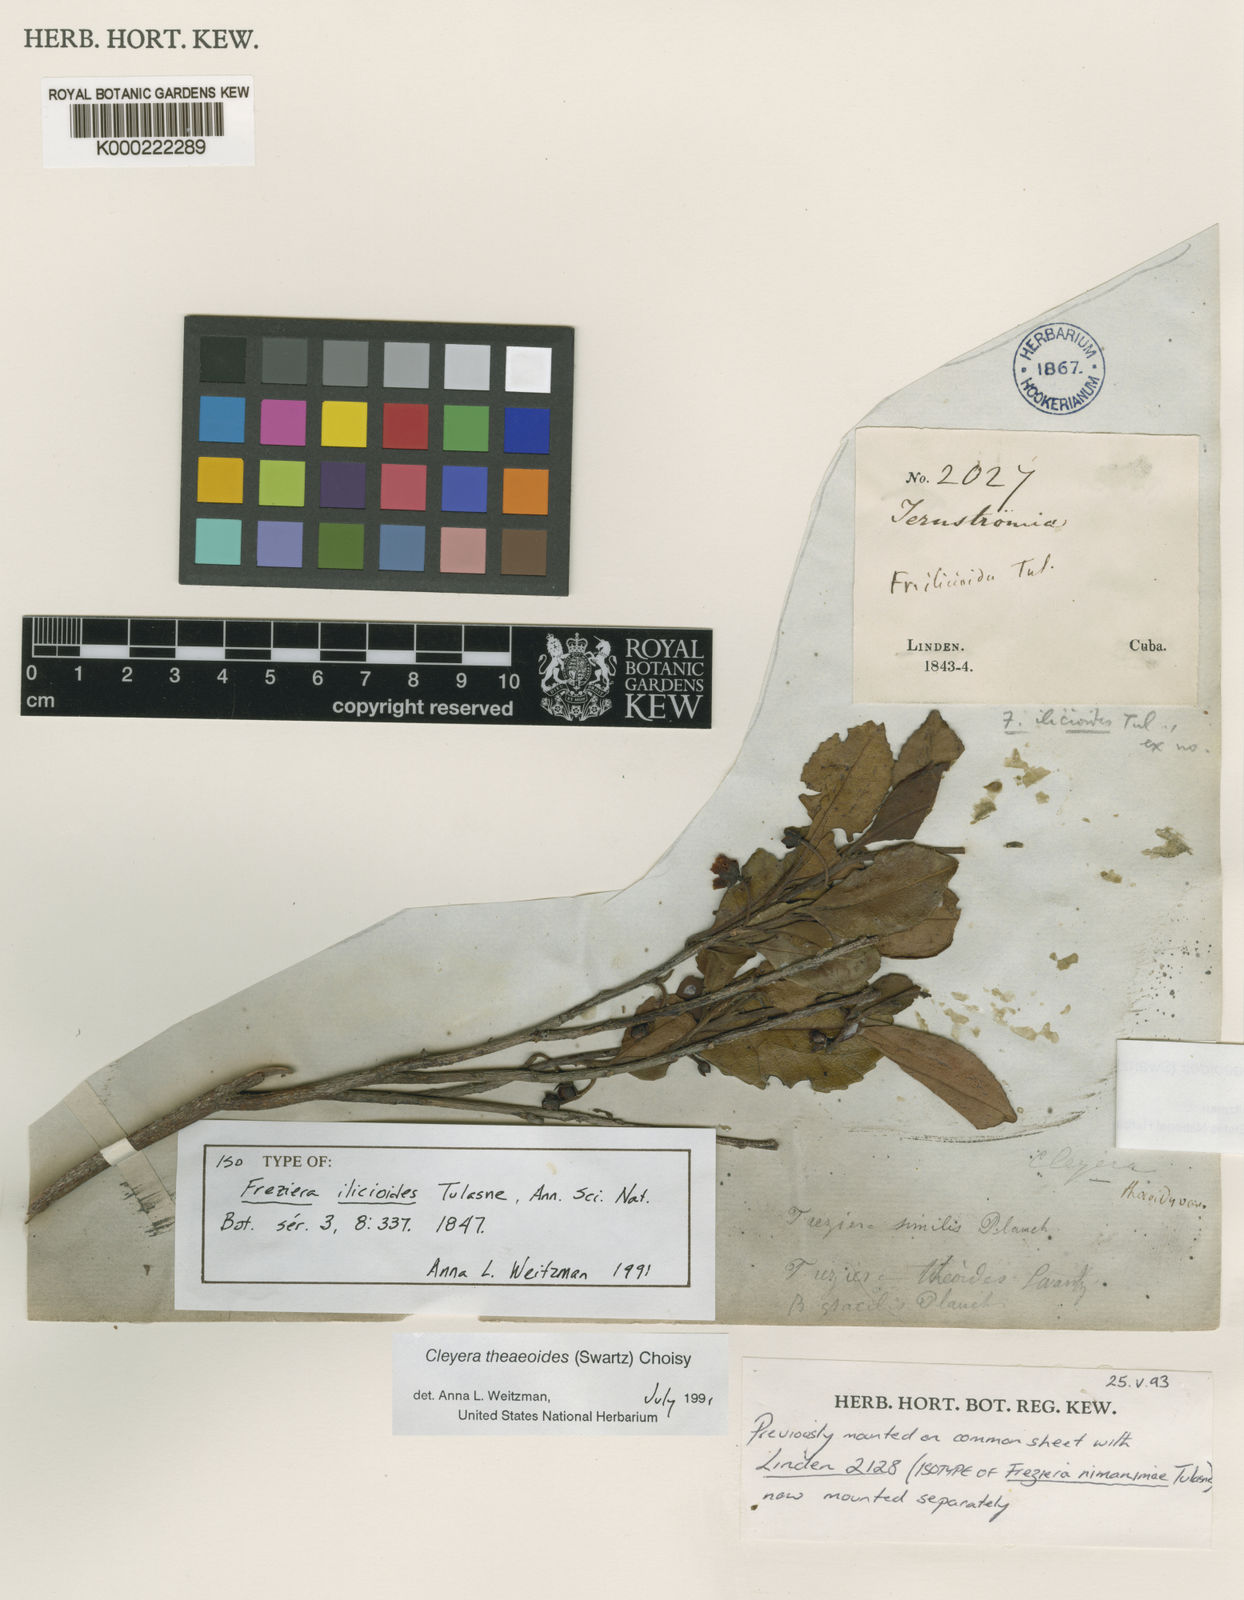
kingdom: Plantae
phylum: Tracheophyta
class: Magnoliopsida
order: Ericales
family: Pentaphylacaceae
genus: Cleyera
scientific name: Cleyera nimanimae
